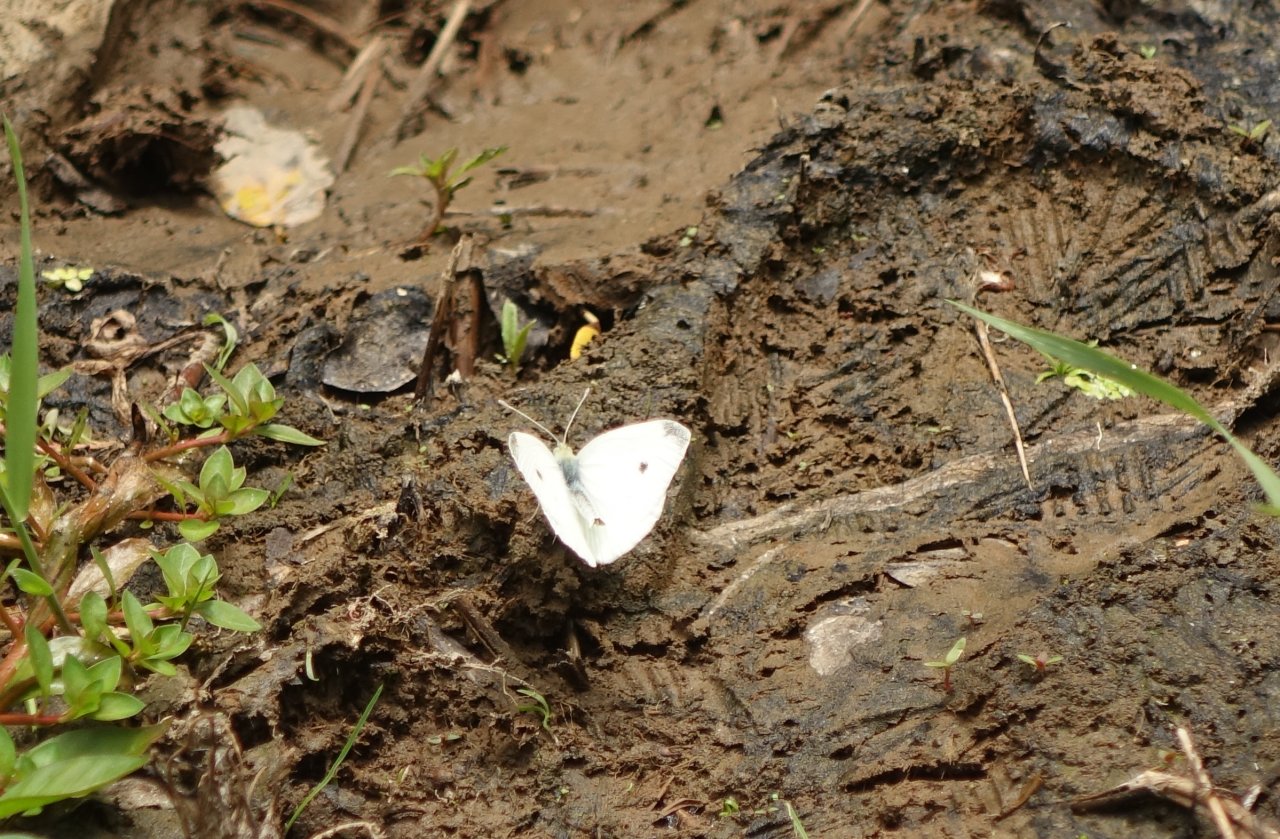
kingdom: Animalia
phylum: Arthropoda
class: Insecta
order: Lepidoptera
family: Pieridae
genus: Pieris
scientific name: Pieris rapae
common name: Cabbage White
